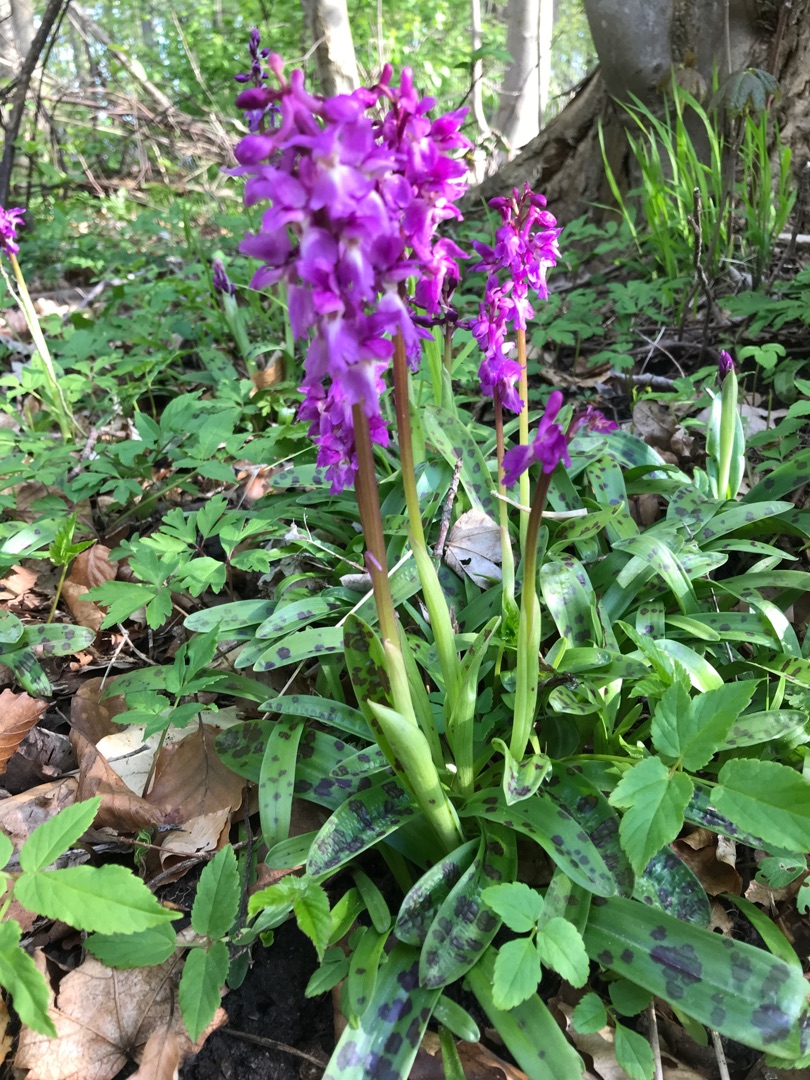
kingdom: Plantae
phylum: Tracheophyta
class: Liliopsida
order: Asparagales
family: Orchidaceae
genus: Orchis
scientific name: Orchis mascula
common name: Tyndakset gøgeurt
